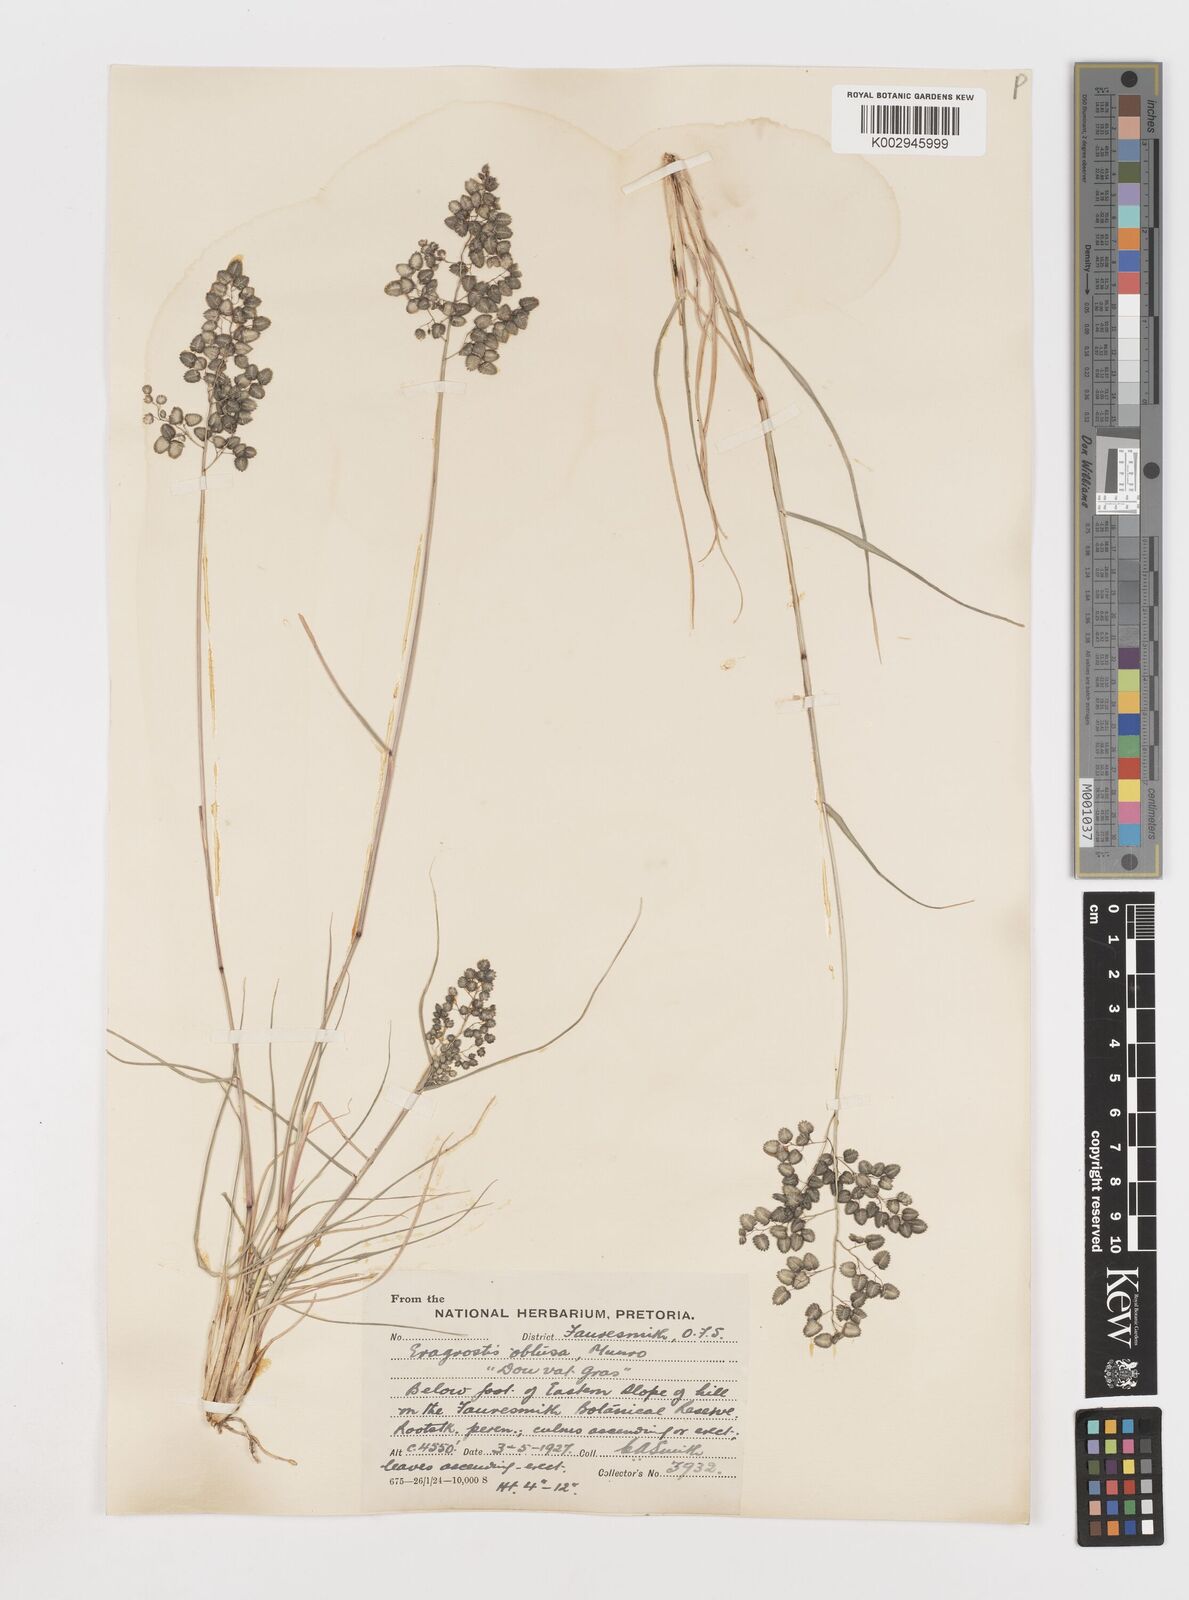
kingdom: Plantae
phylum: Tracheophyta
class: Liliopsida
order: Poales
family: Poaceae
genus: Eragrostis
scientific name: Eragrostis obtusa
